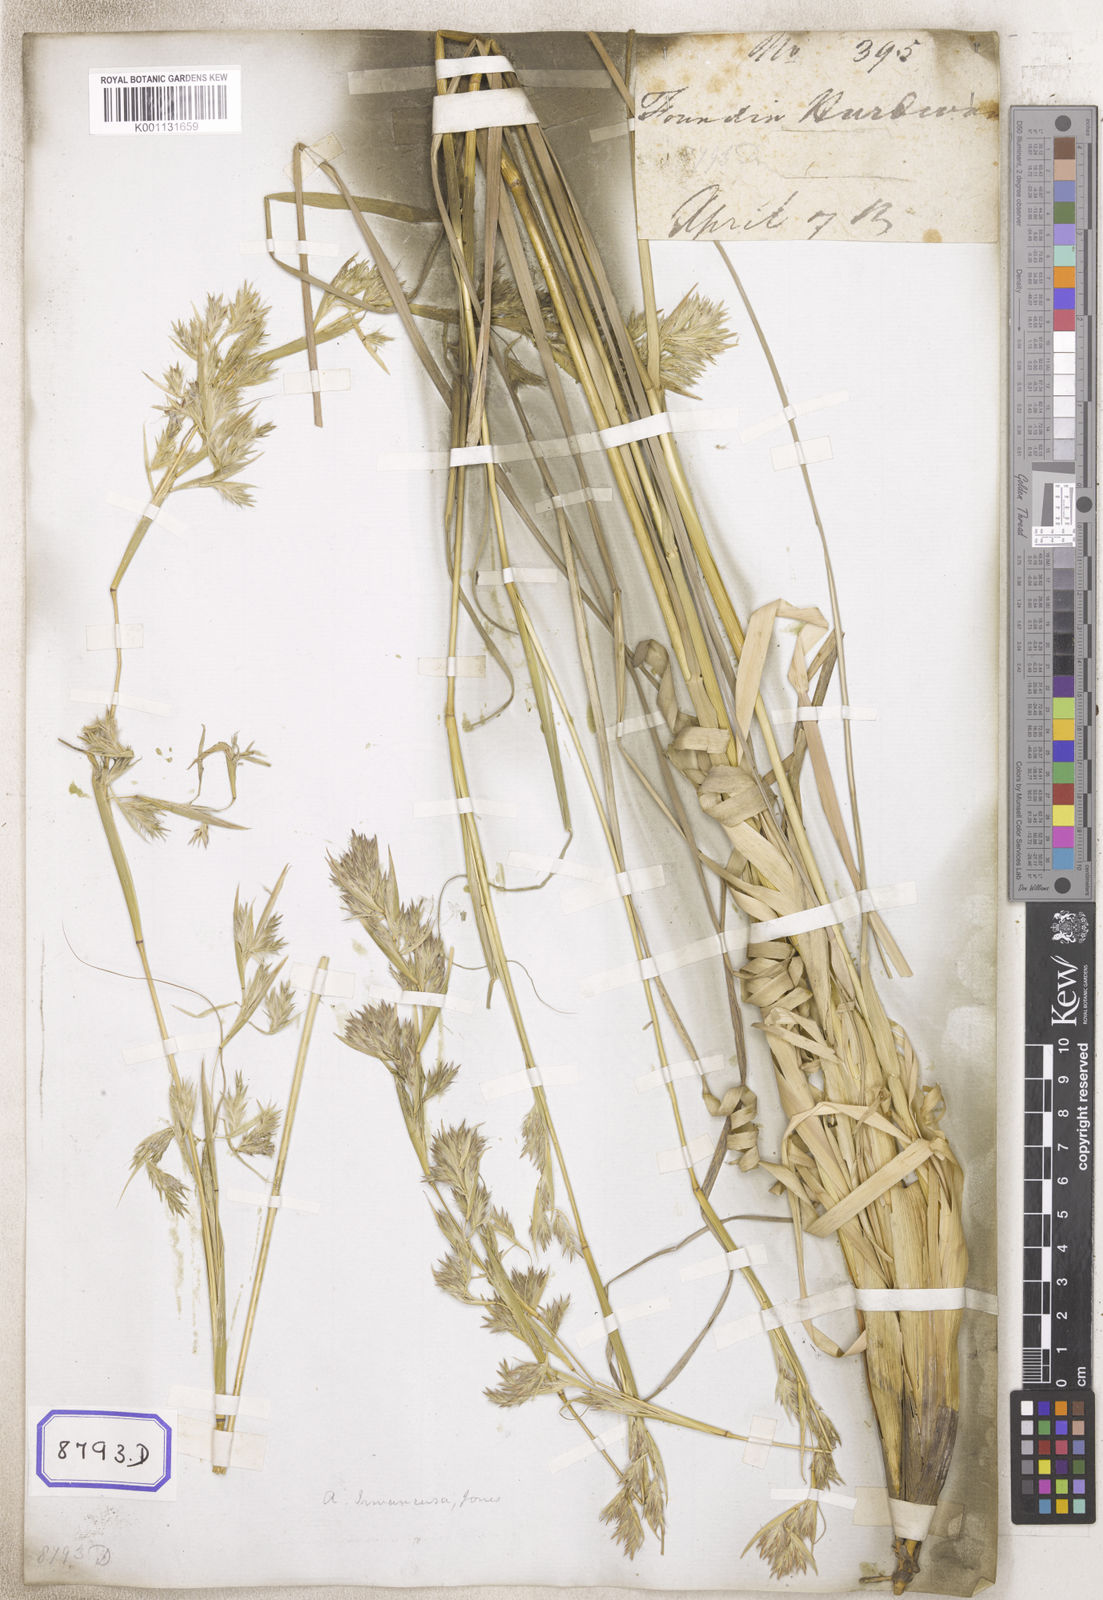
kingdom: Plantae
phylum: Tracheophyta
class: Liliopsida
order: Poales
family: Poaceae
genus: Cymbopogon
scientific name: Cymbopogon iwarancusa
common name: Iwarancusa grass
